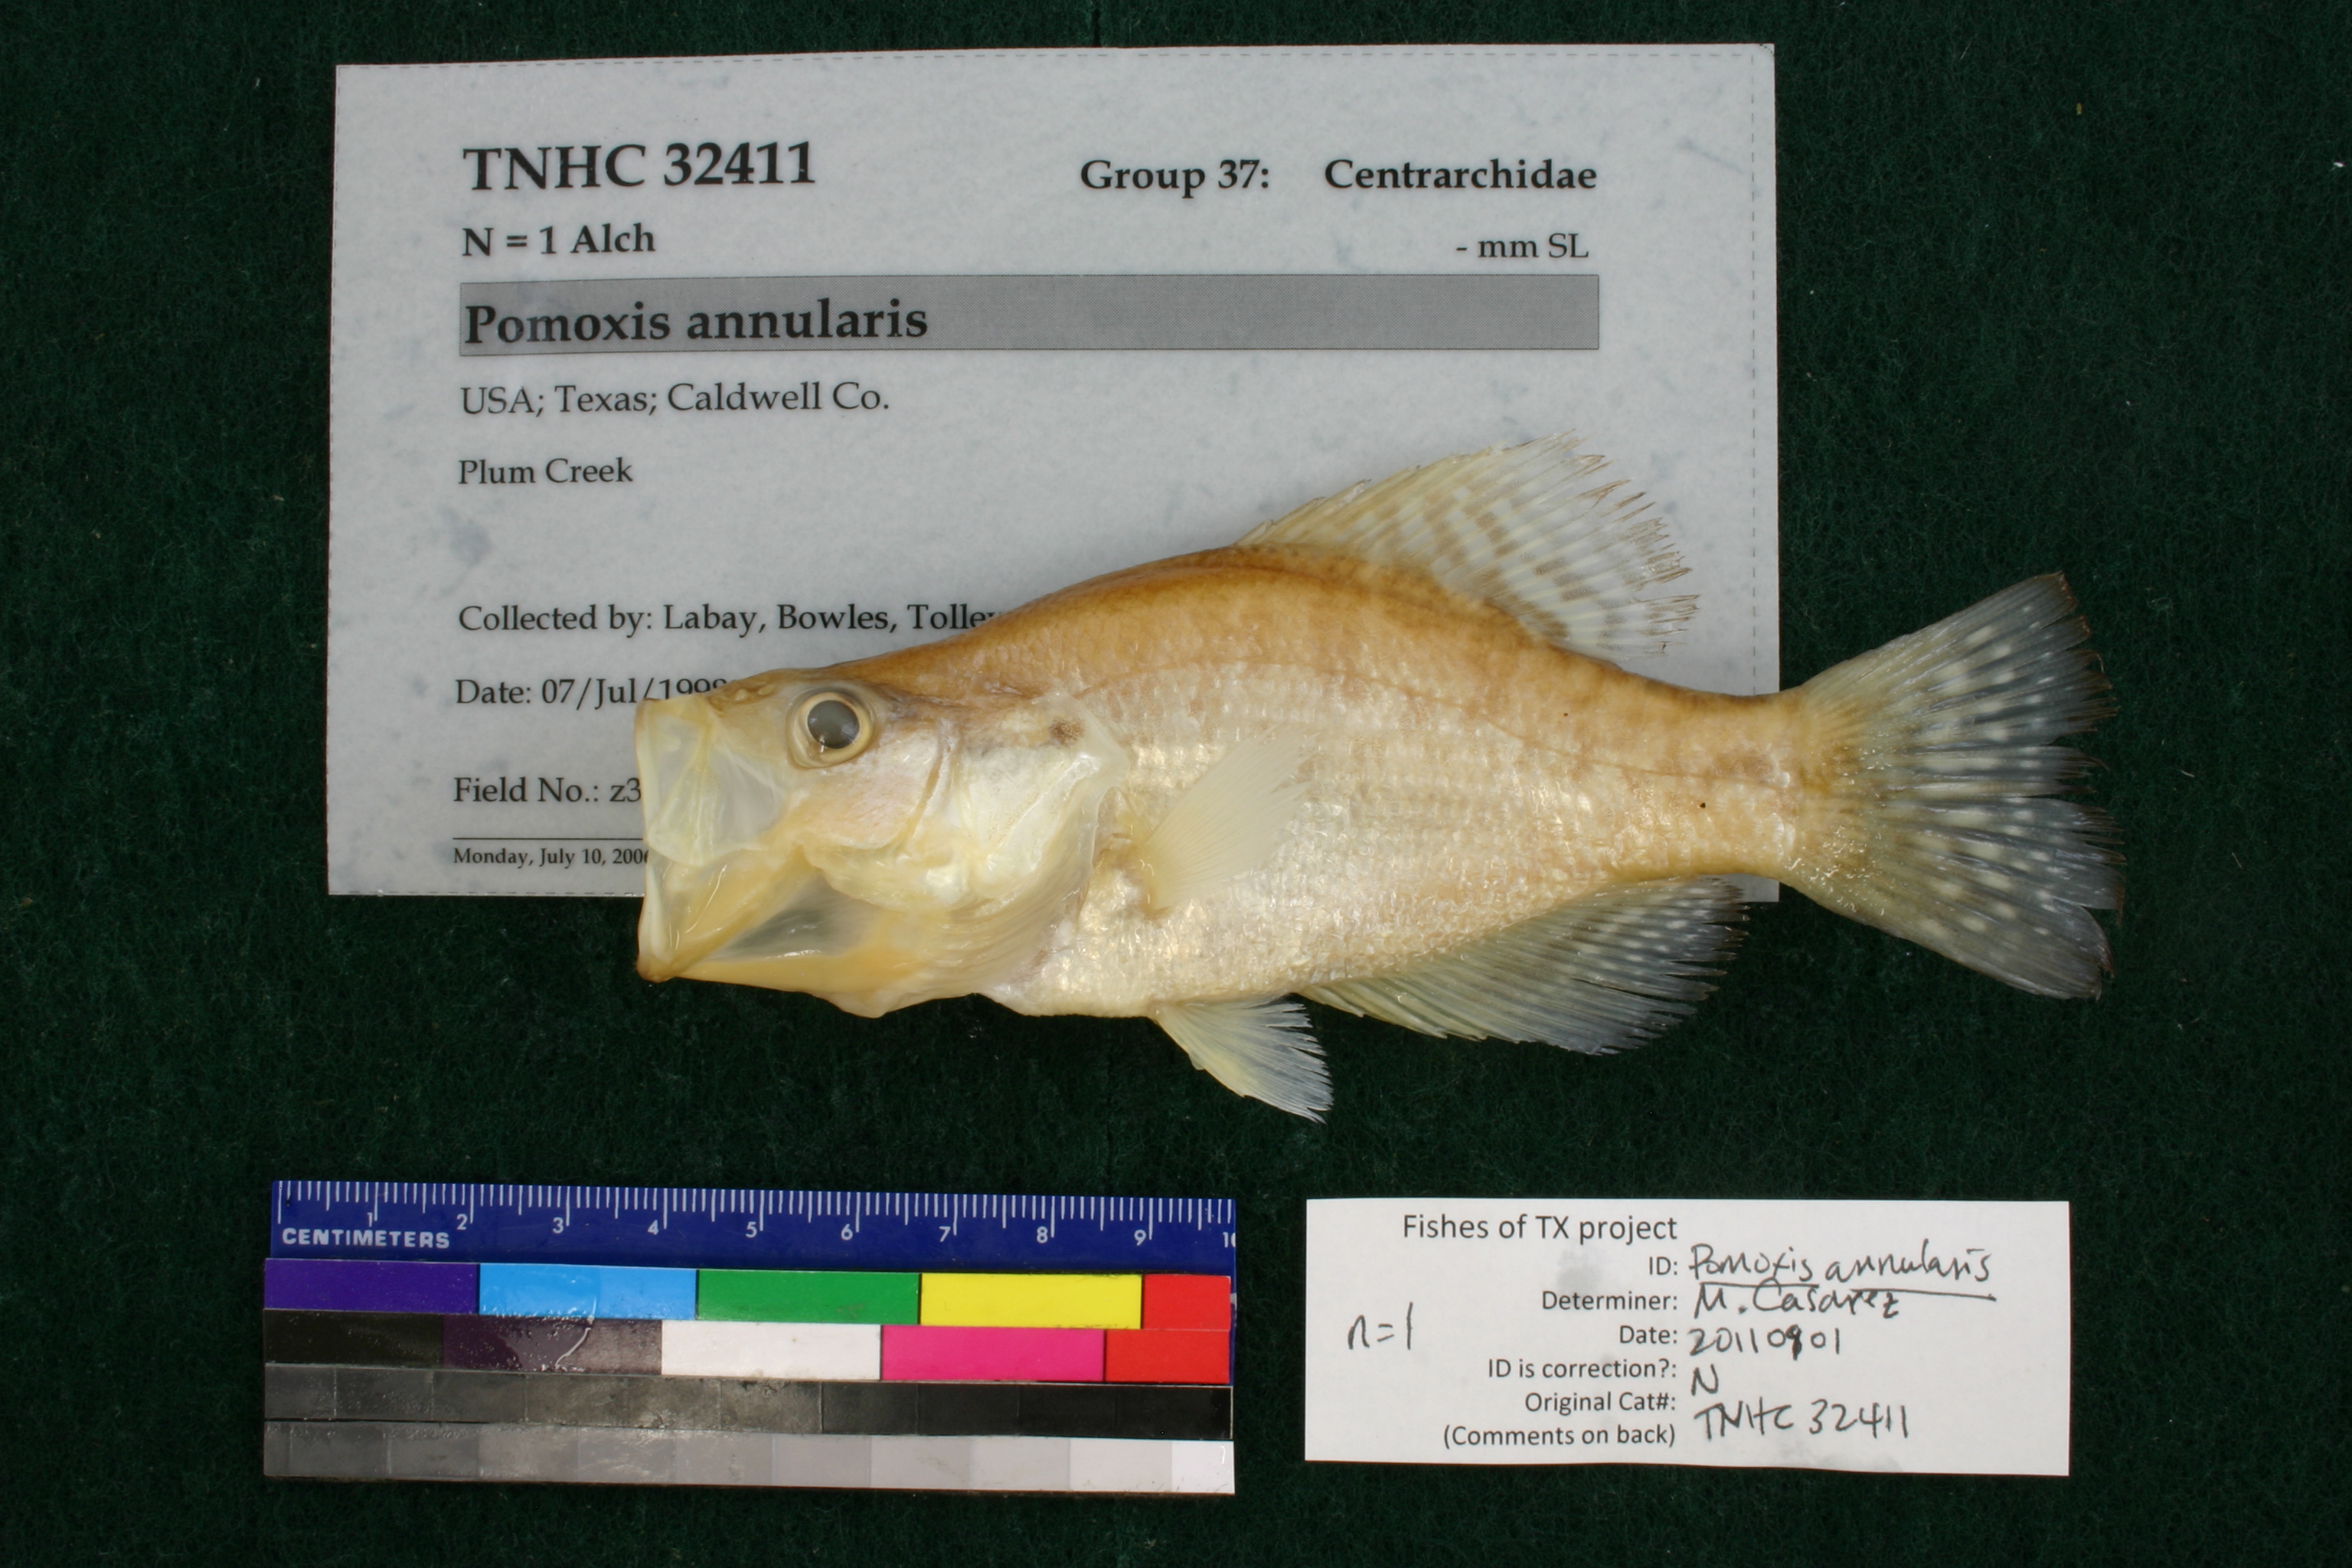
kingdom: Animalia
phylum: Chordata
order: Perciformes
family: Centrarchidae
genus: Pomoxis
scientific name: Pomoxis annularis
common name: White crappie
